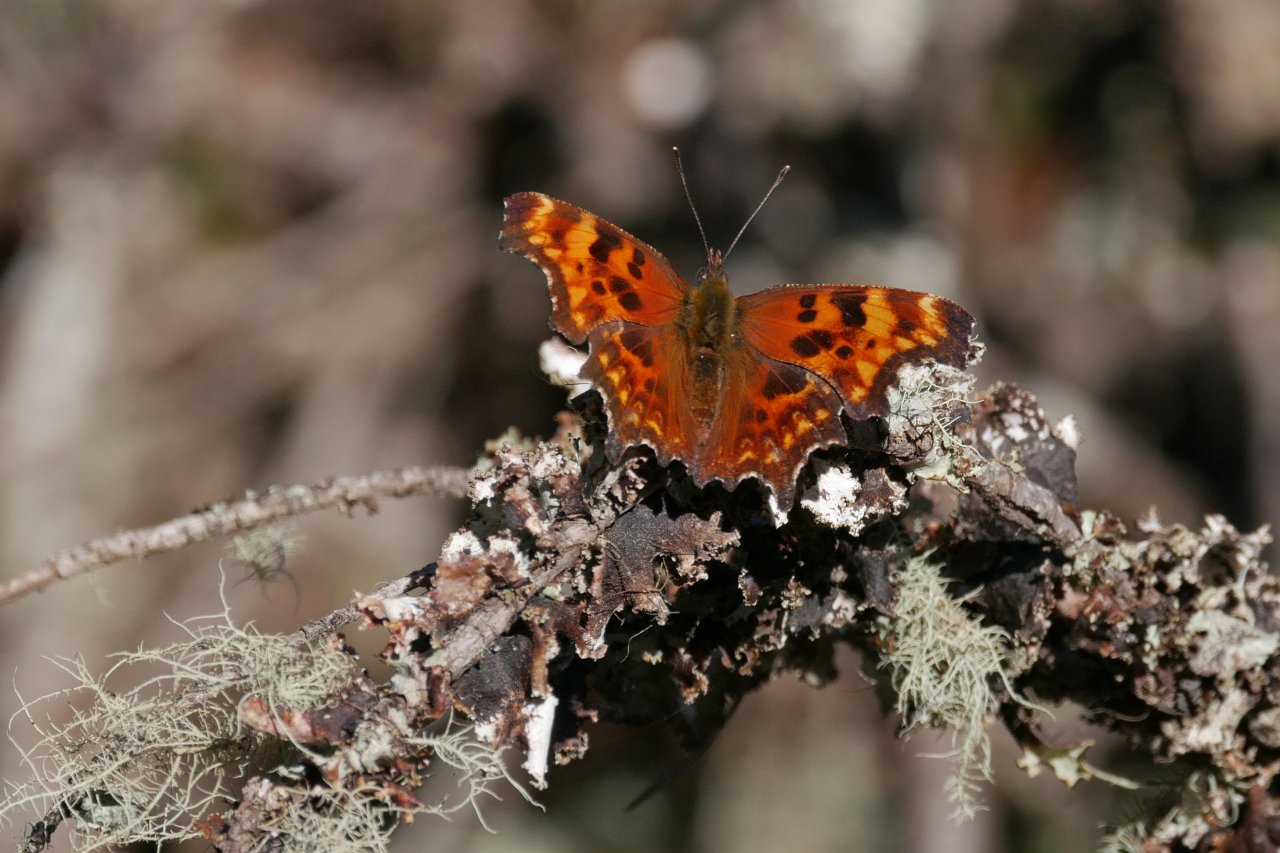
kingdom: Animalia
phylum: Arthropoda
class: Insecta
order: Lepidoptera
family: Nymphalidae
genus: Polygonia
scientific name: Polygonia oreas
